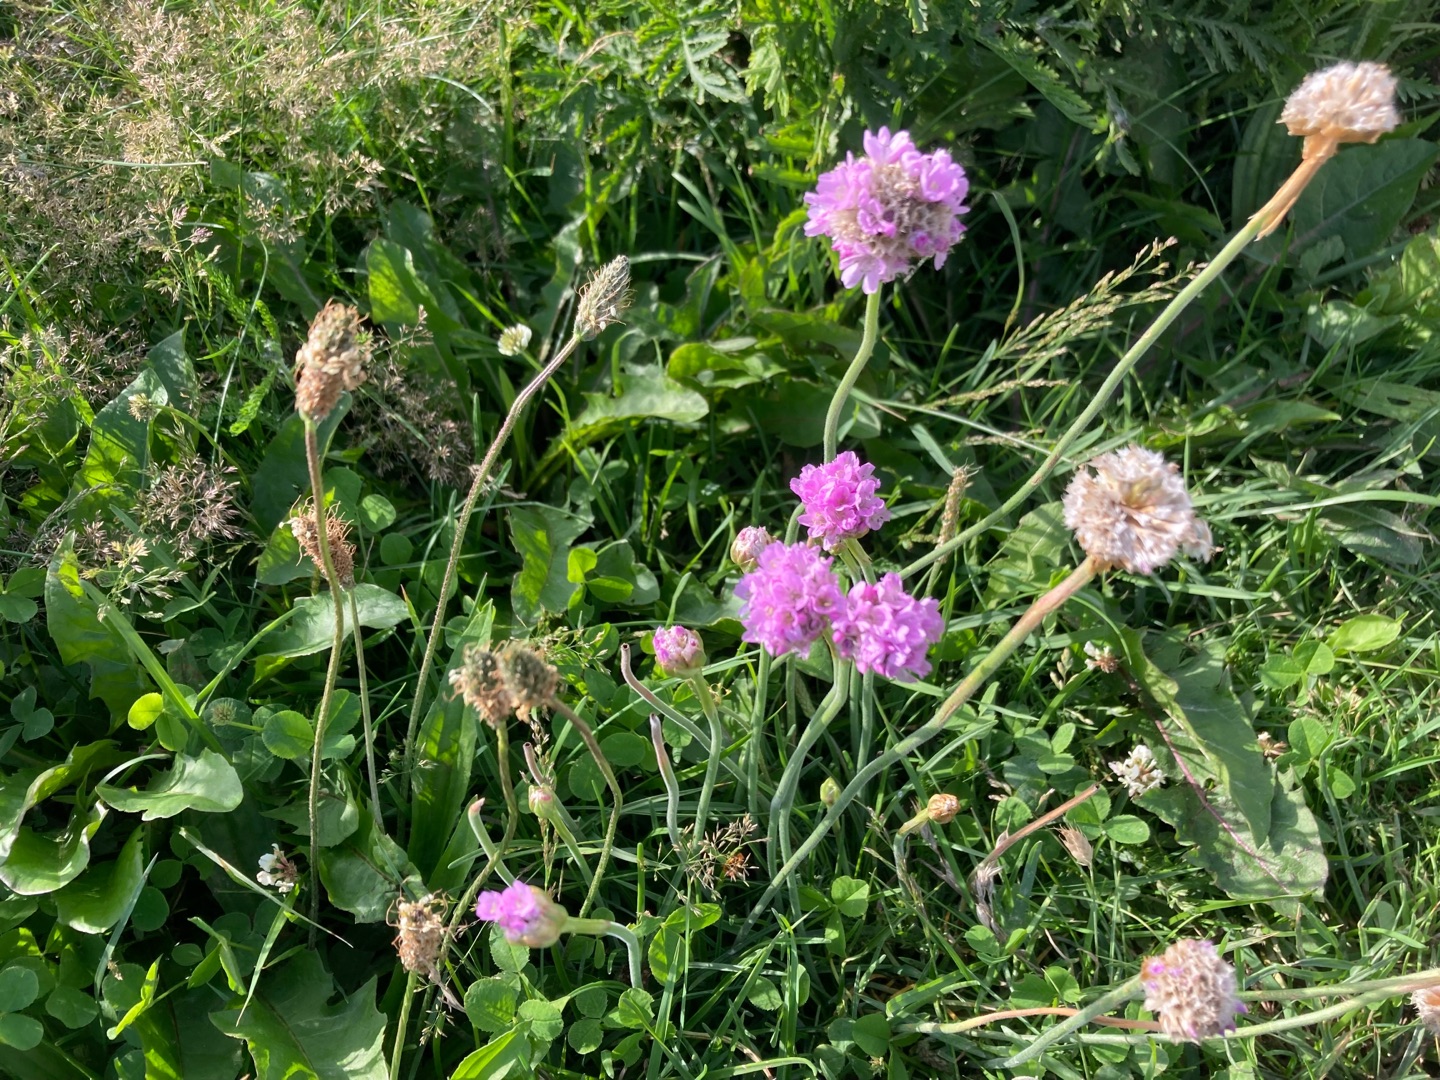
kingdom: Plantae
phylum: Tracheophyta
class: Magnoliopsida
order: Caryophyllales
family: Plumbaginaceae
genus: Armeria
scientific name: Armeria maritima
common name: Engelskgræs
